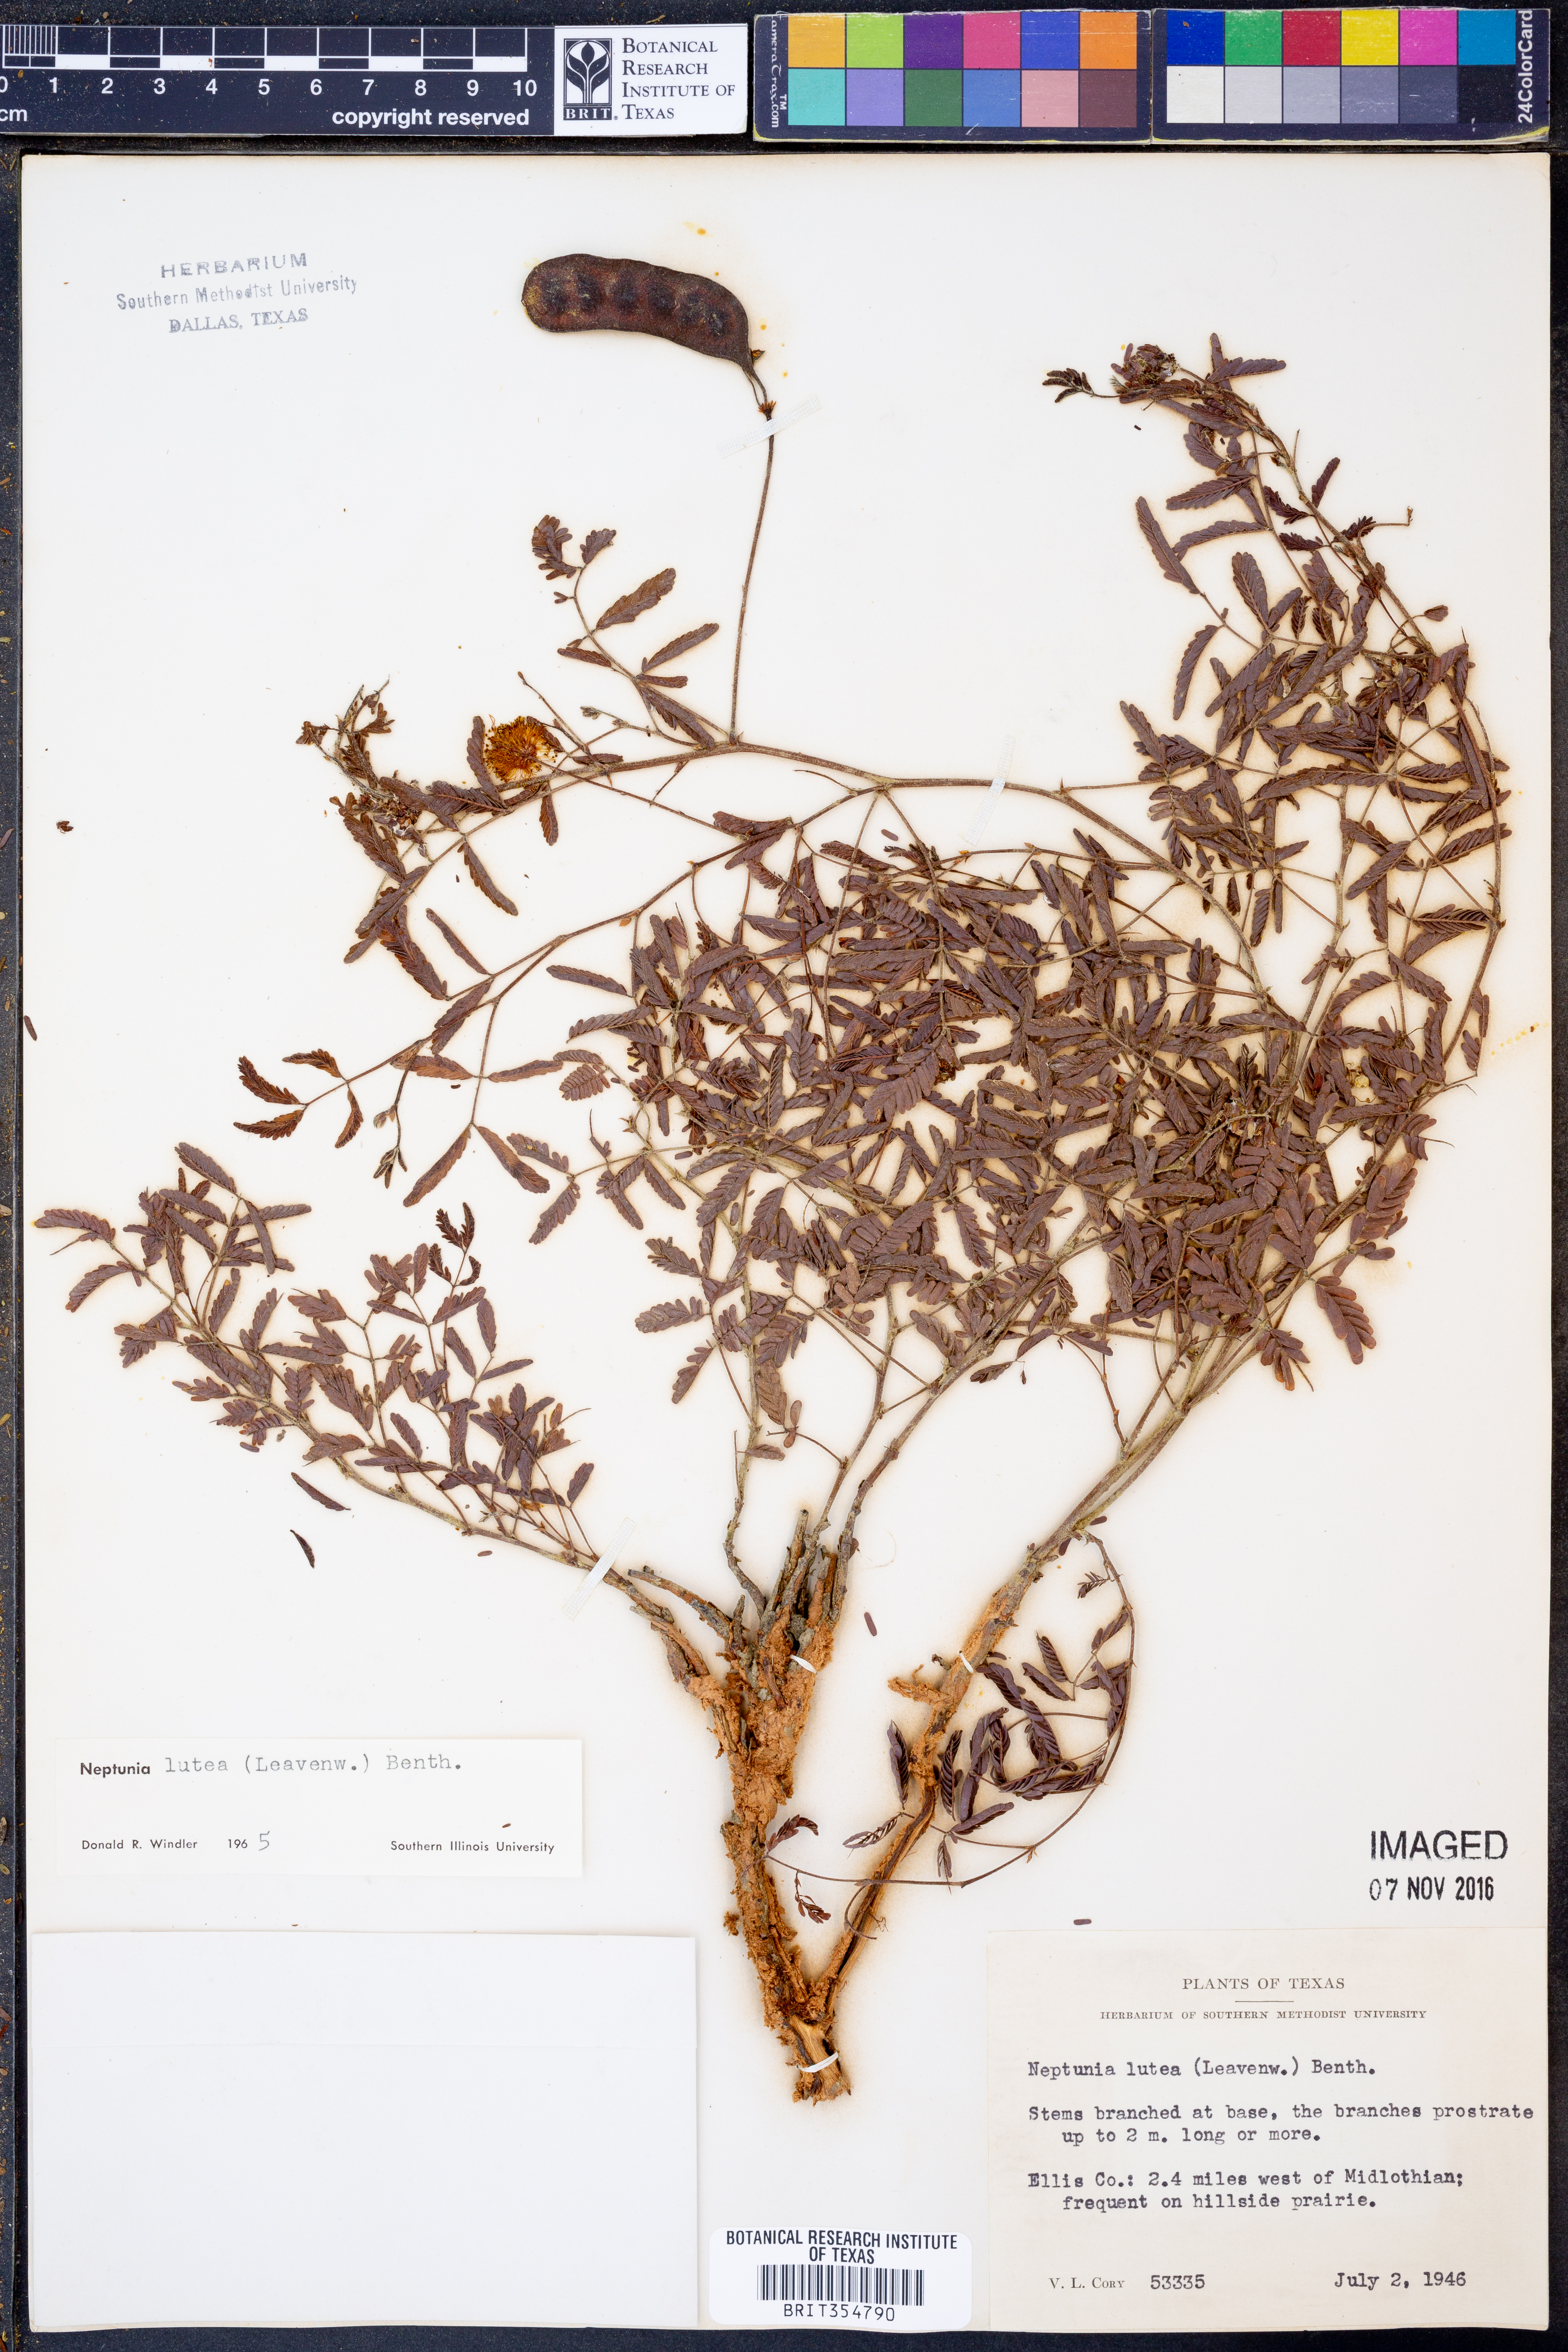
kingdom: Plantae
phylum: Tracheophyta
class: Magnoliopsida
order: Fabales
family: Fabaceae
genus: Neptunia
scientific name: Neptunia lutea
